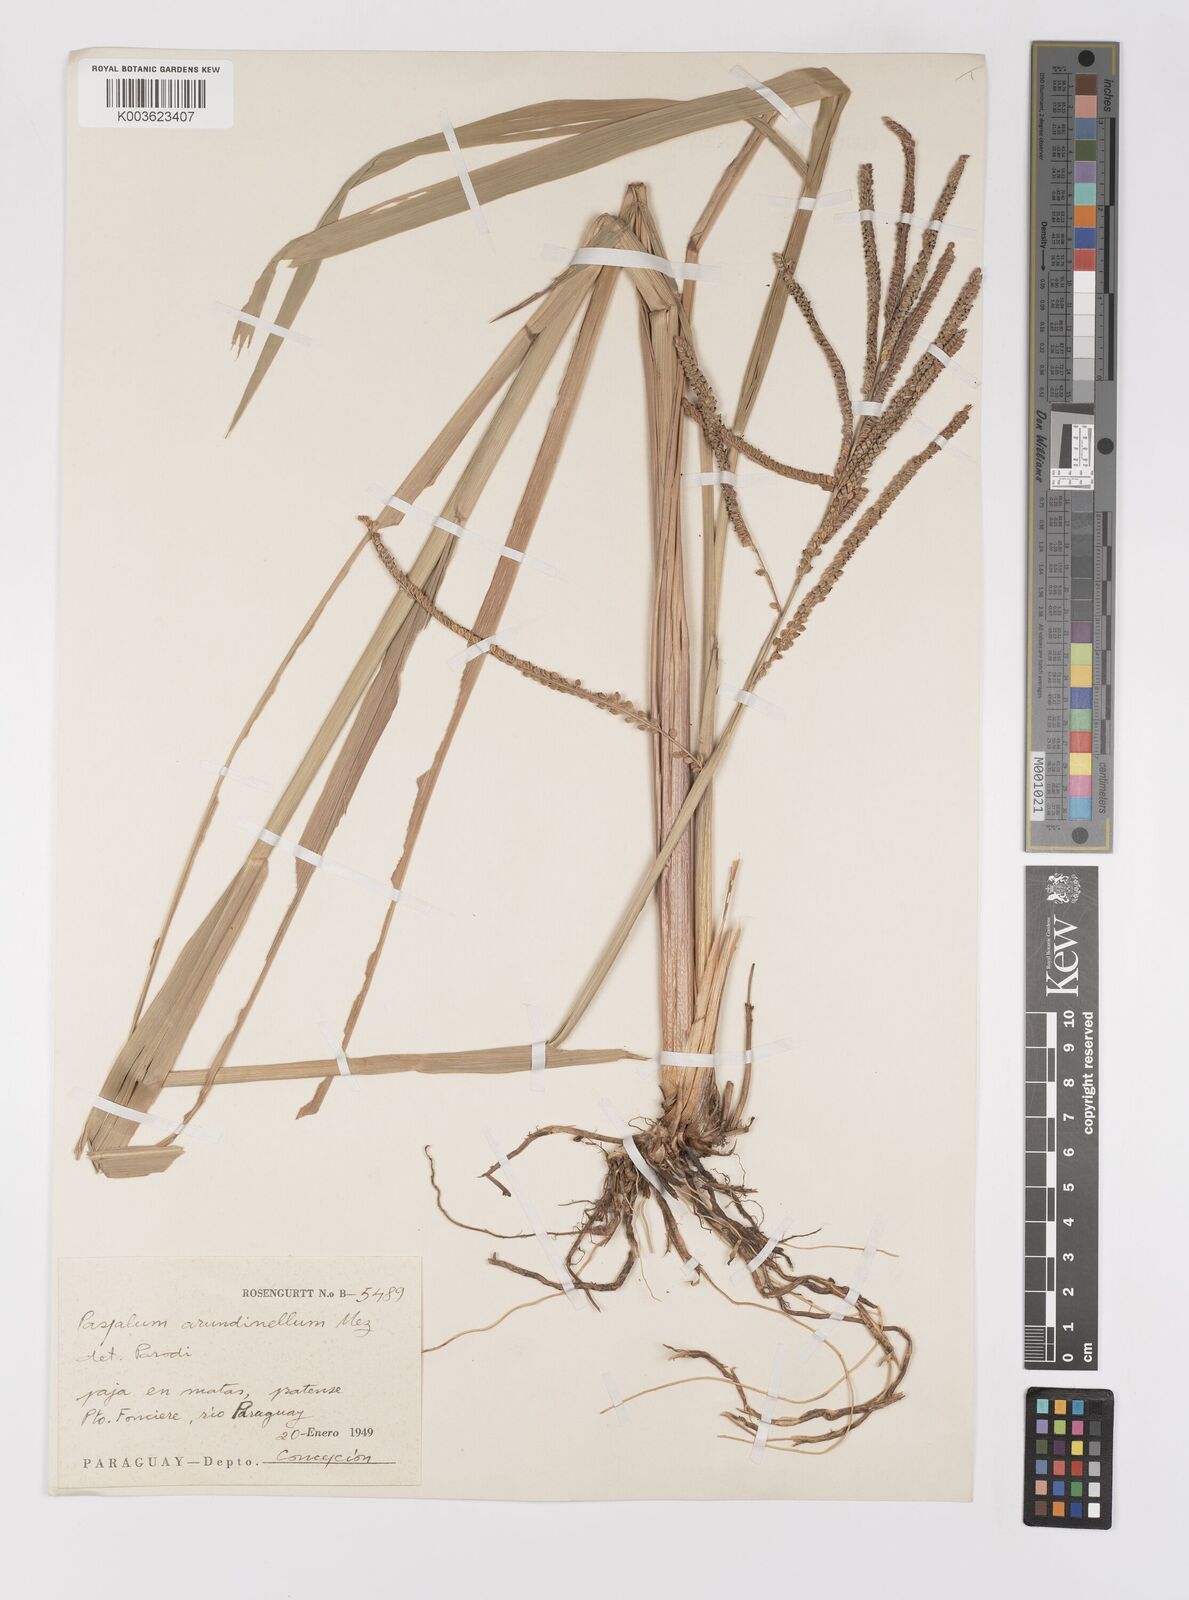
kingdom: Plantae
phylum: Tracheophyta
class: Liliopsida
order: Poales
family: Poaceae
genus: Paspalum
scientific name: Paspalum arundinellum
